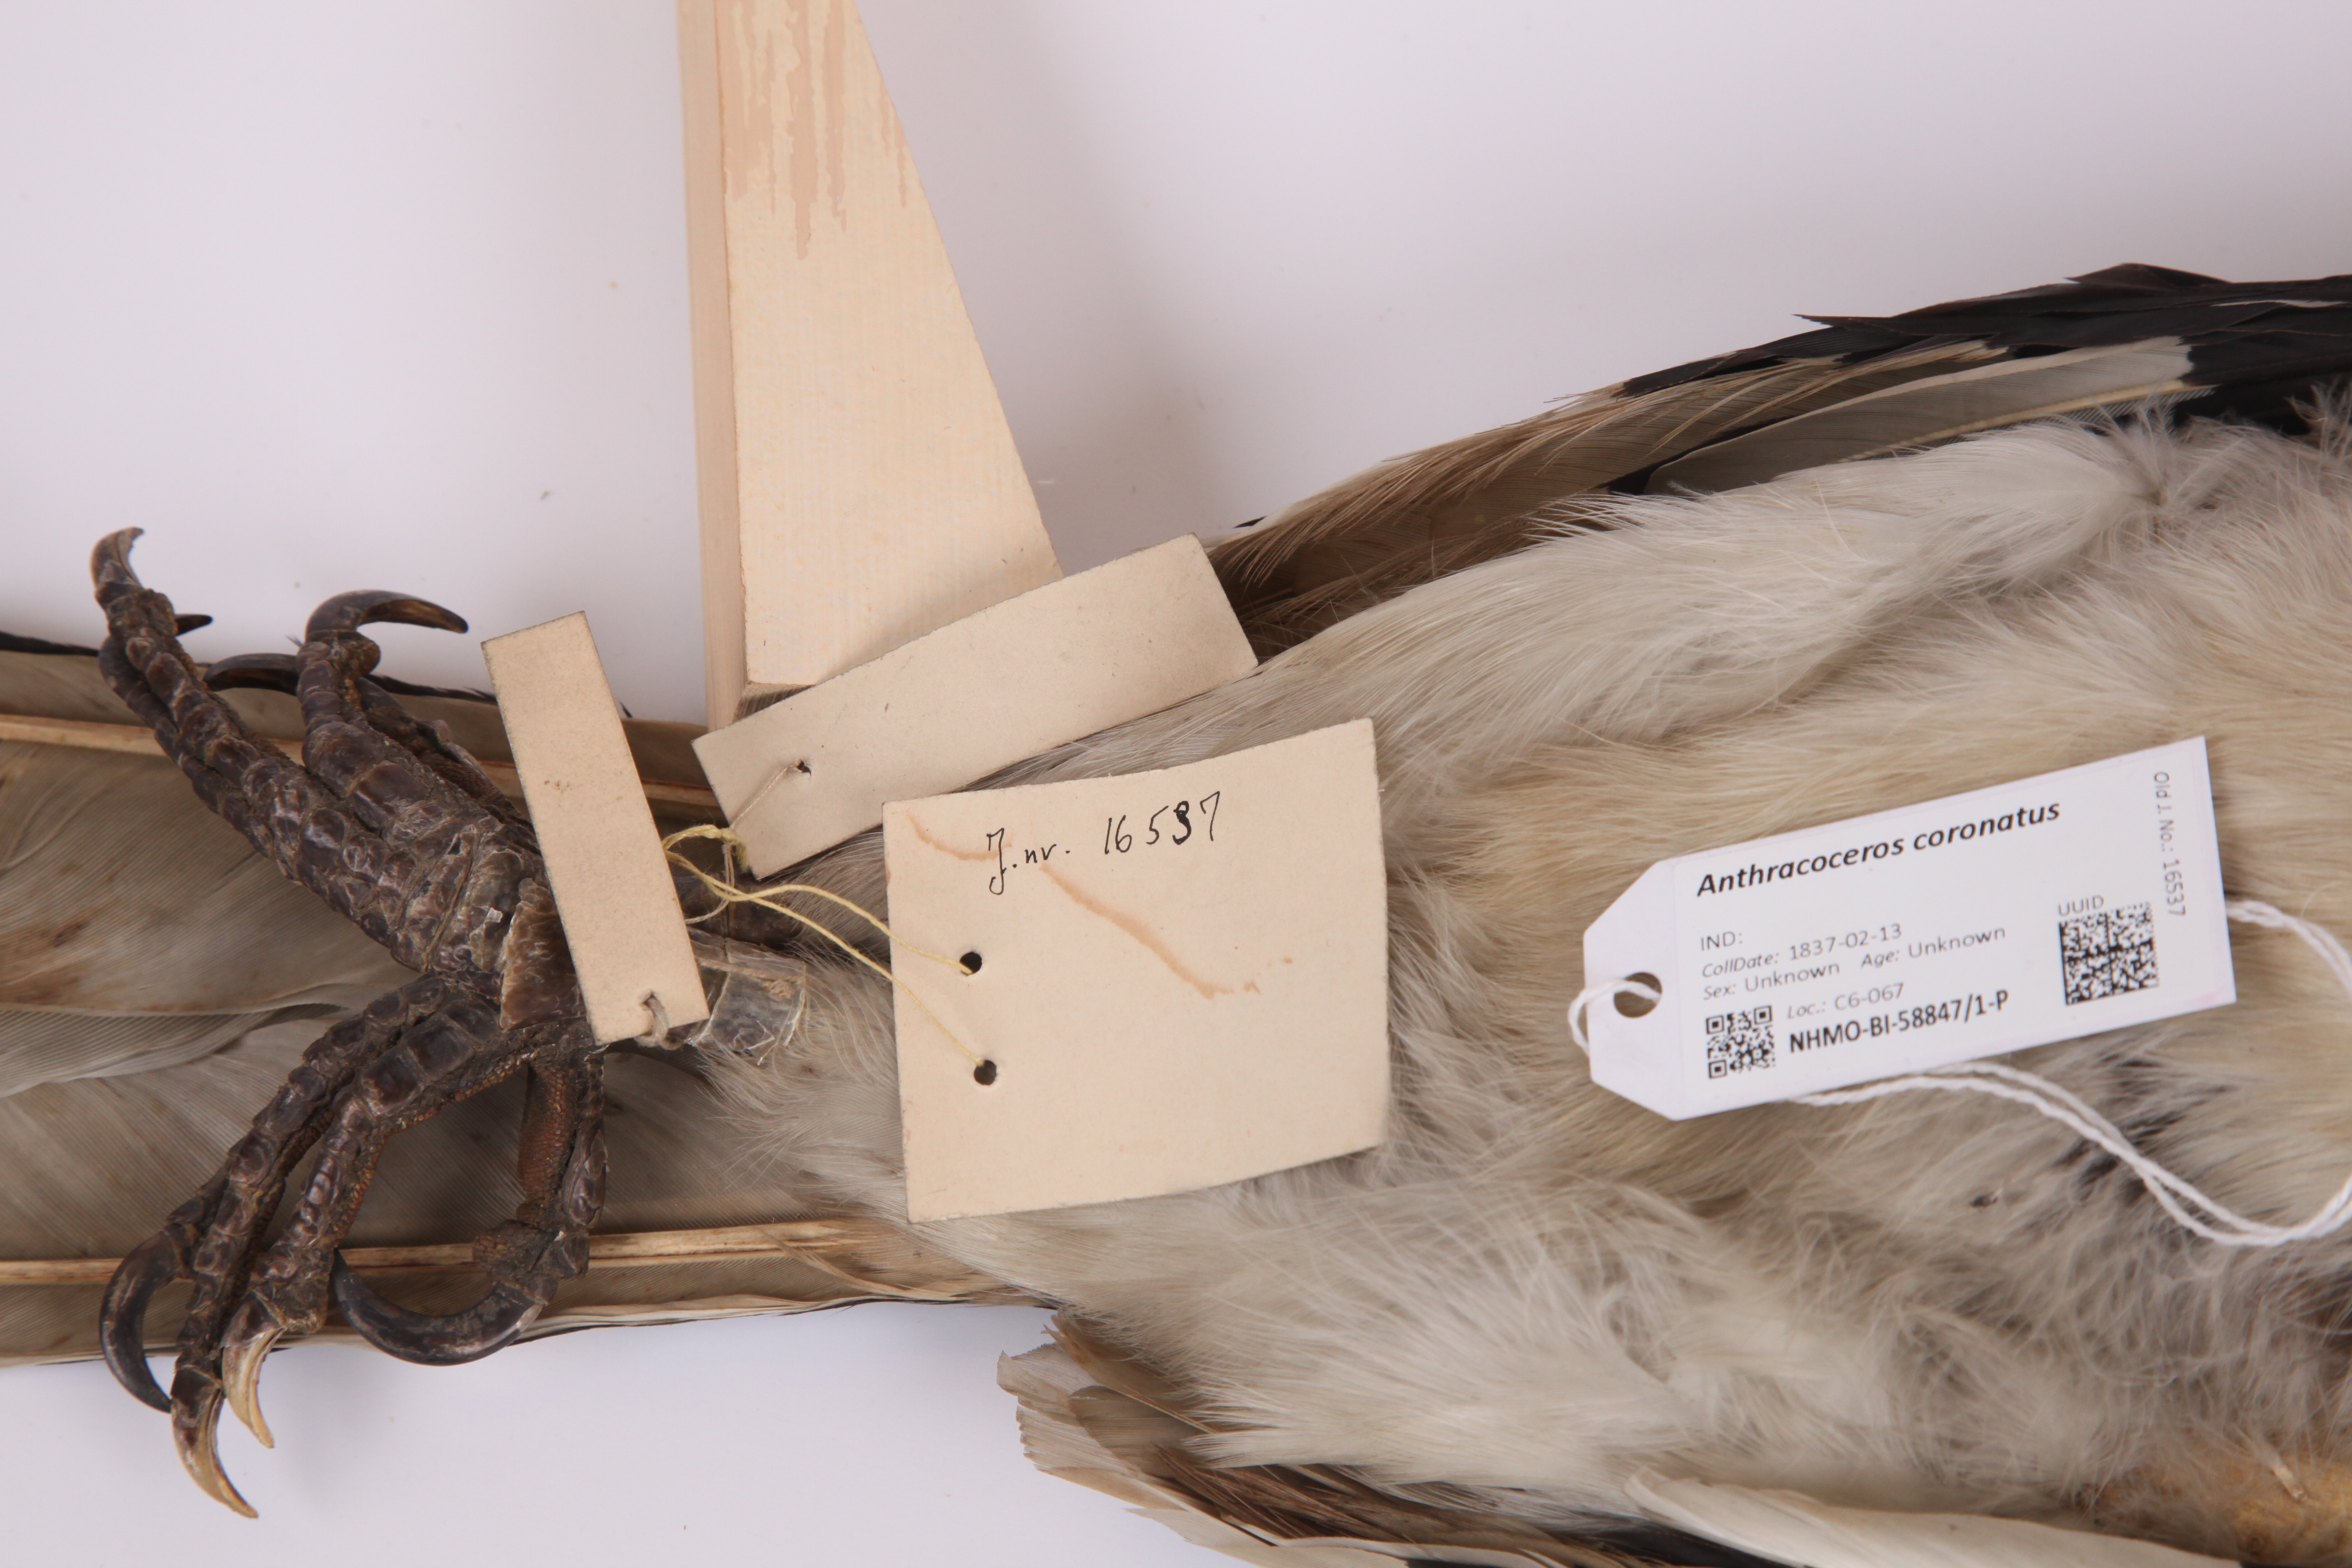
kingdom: Animalia
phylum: Chordata
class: Aves
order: Bucerotiformes
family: Bucerotidae
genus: Anthracoceros
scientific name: Anthracoceros coronatus
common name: Malabar pied hornbill
